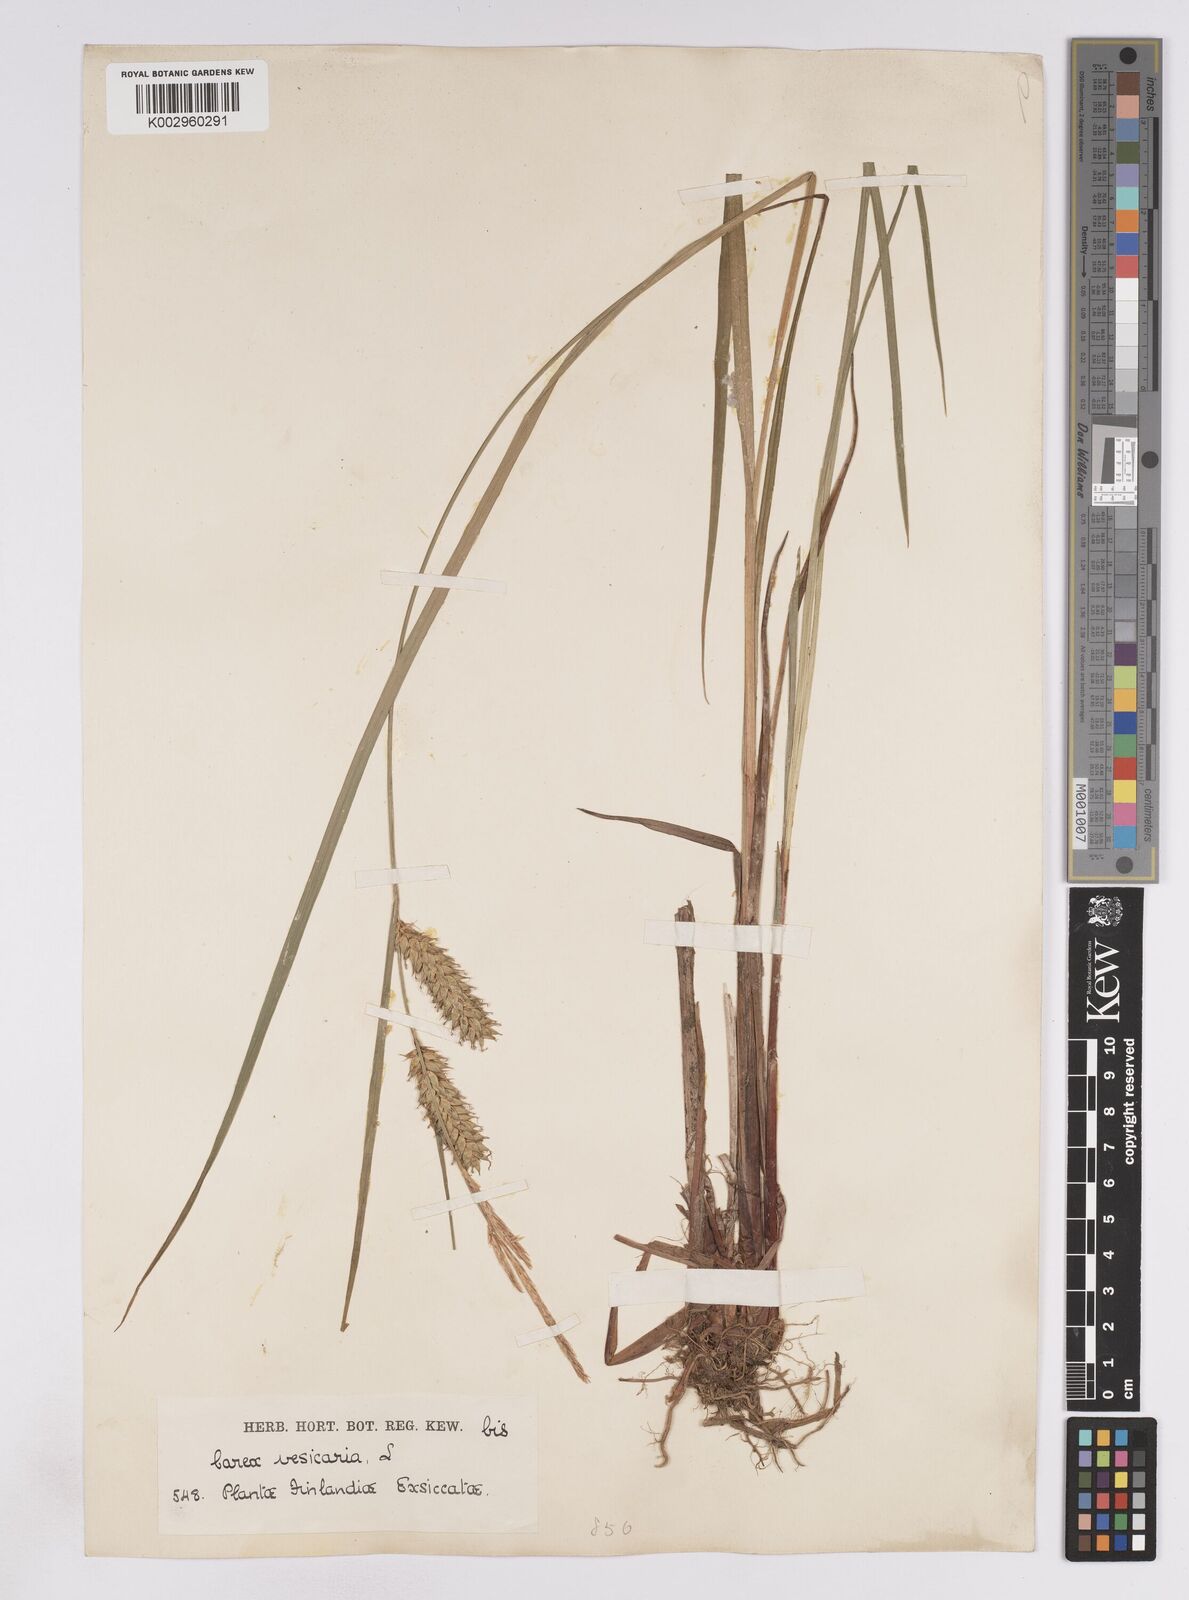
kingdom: Plantae
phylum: Tracheophyta
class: Liliopsida
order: Poales
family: Cyperaceae
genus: Carex
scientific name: Carex vesicaria
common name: Bladder-sedge
